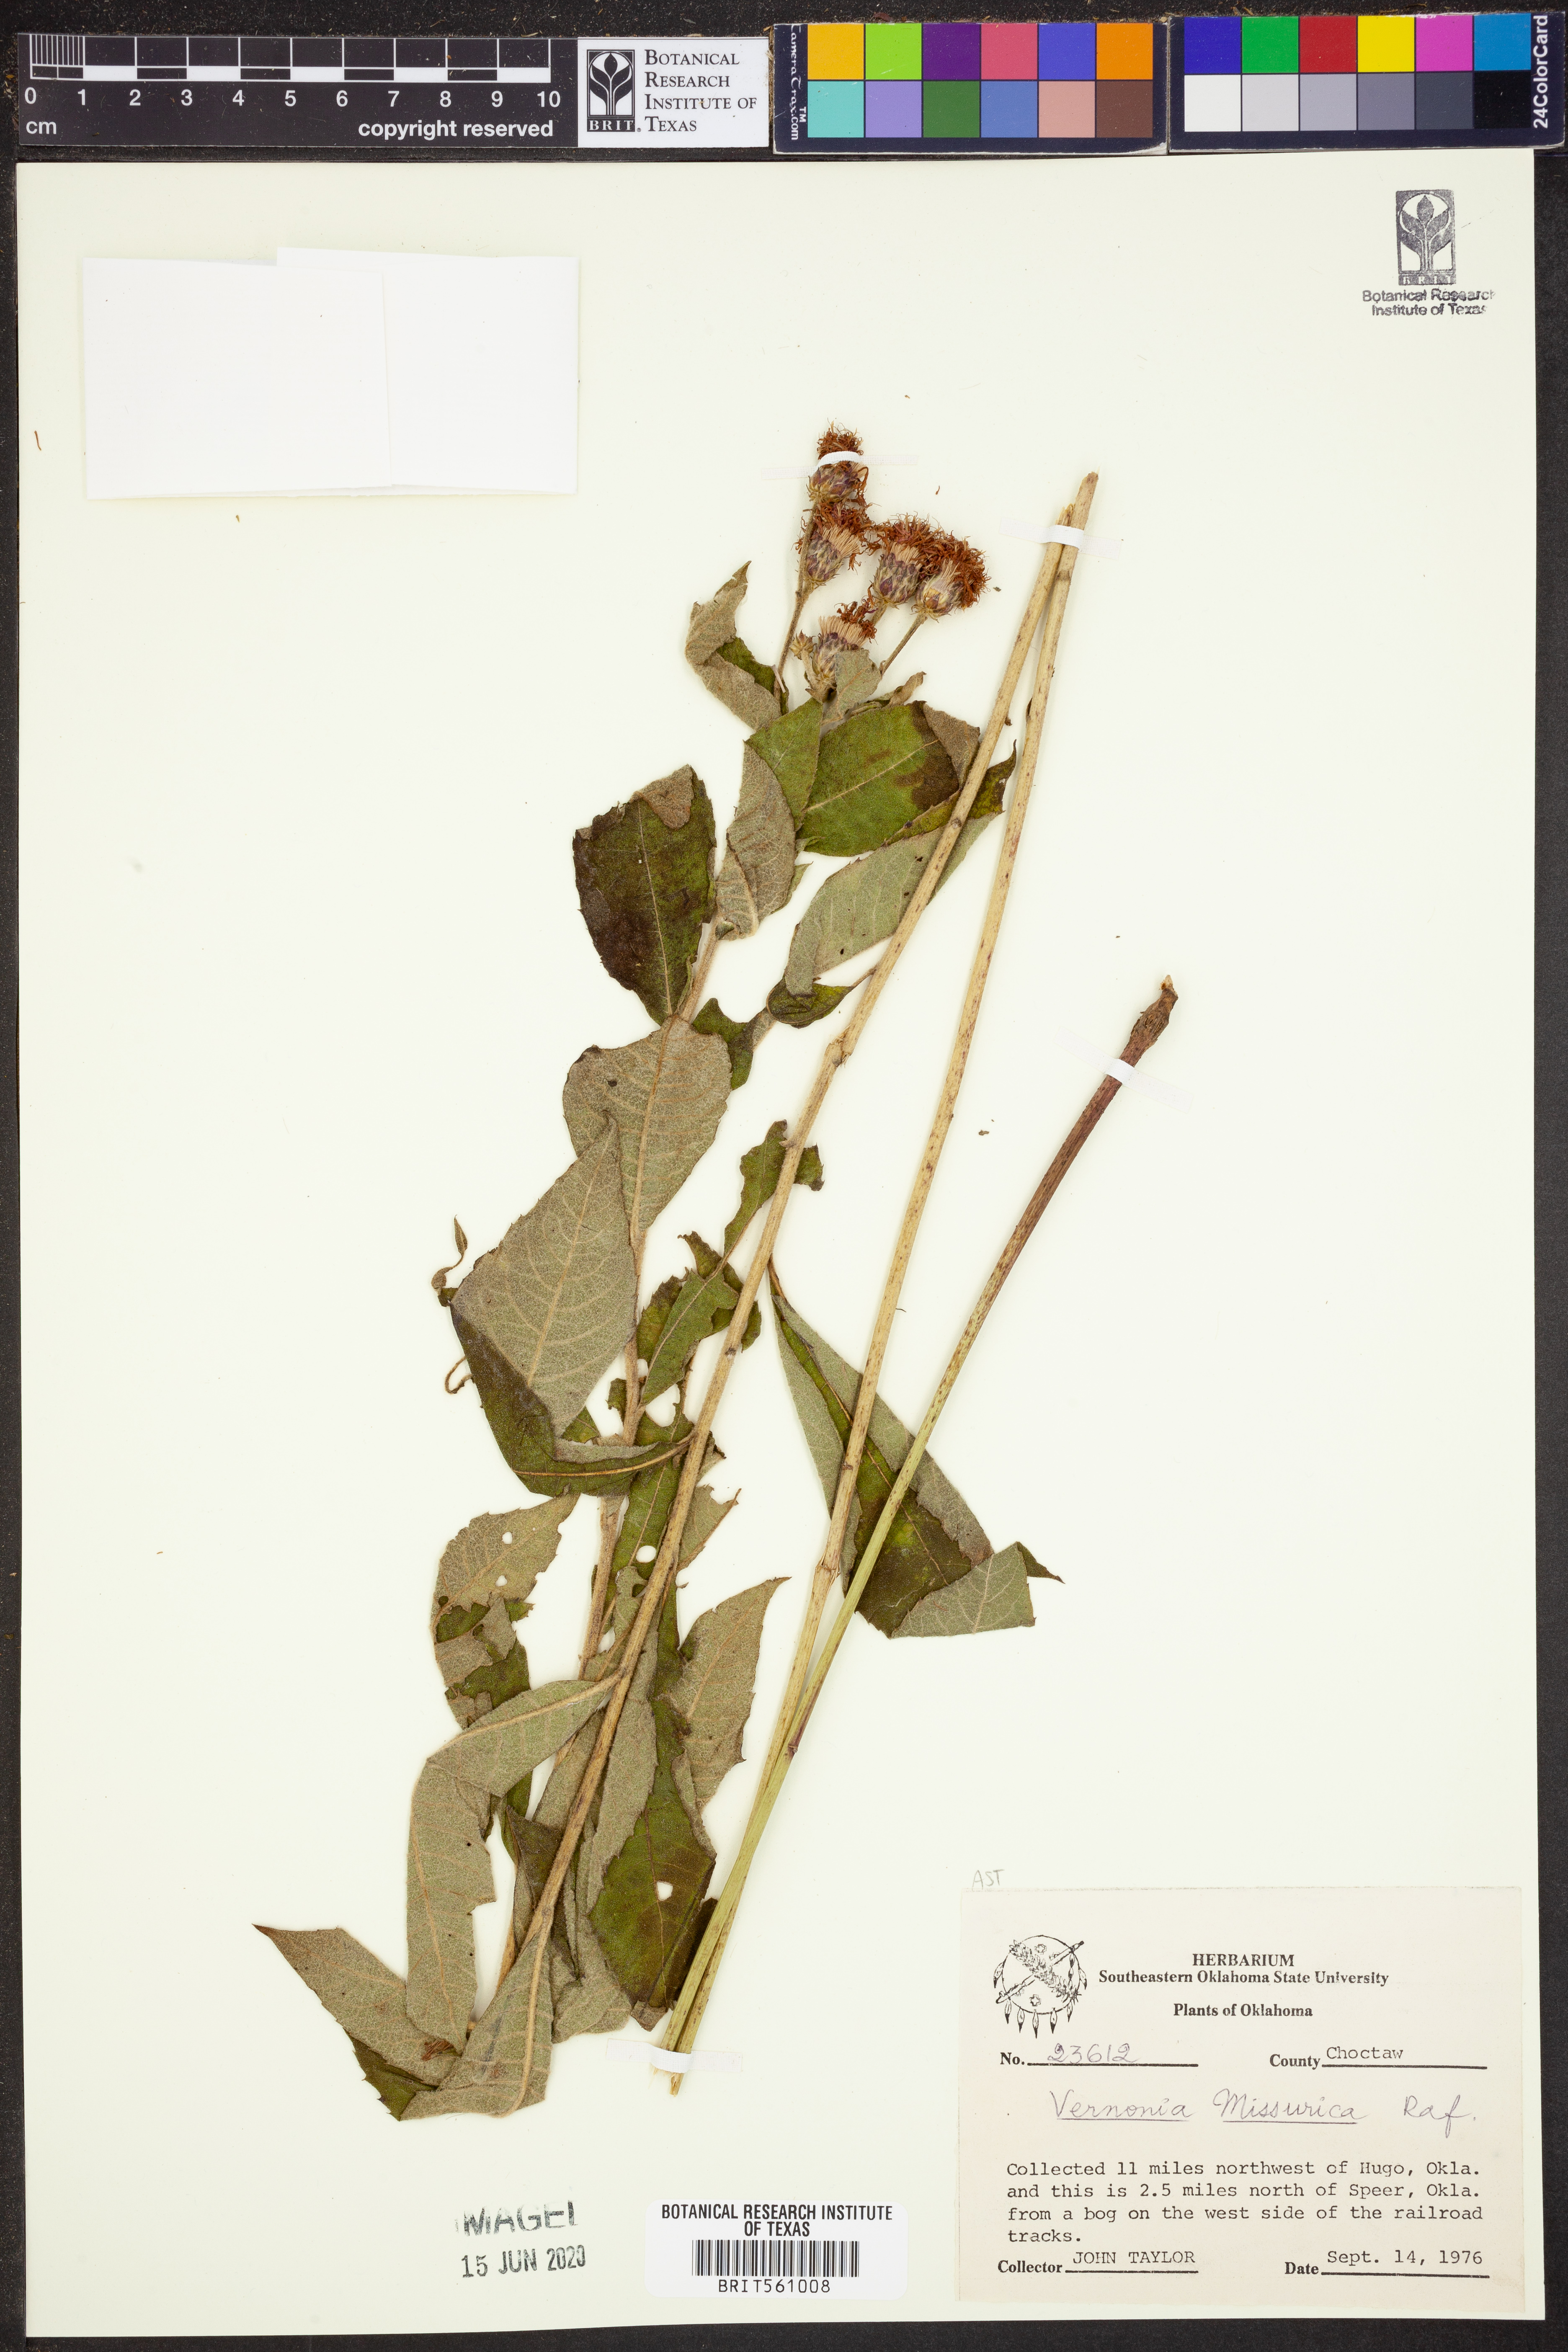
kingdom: Plantae
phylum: Tracheophyta
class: Magnoliopsida
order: Asterales
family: Asteraceae
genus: Vernonia
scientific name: Vernonia missurica
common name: Missouri ironweed
